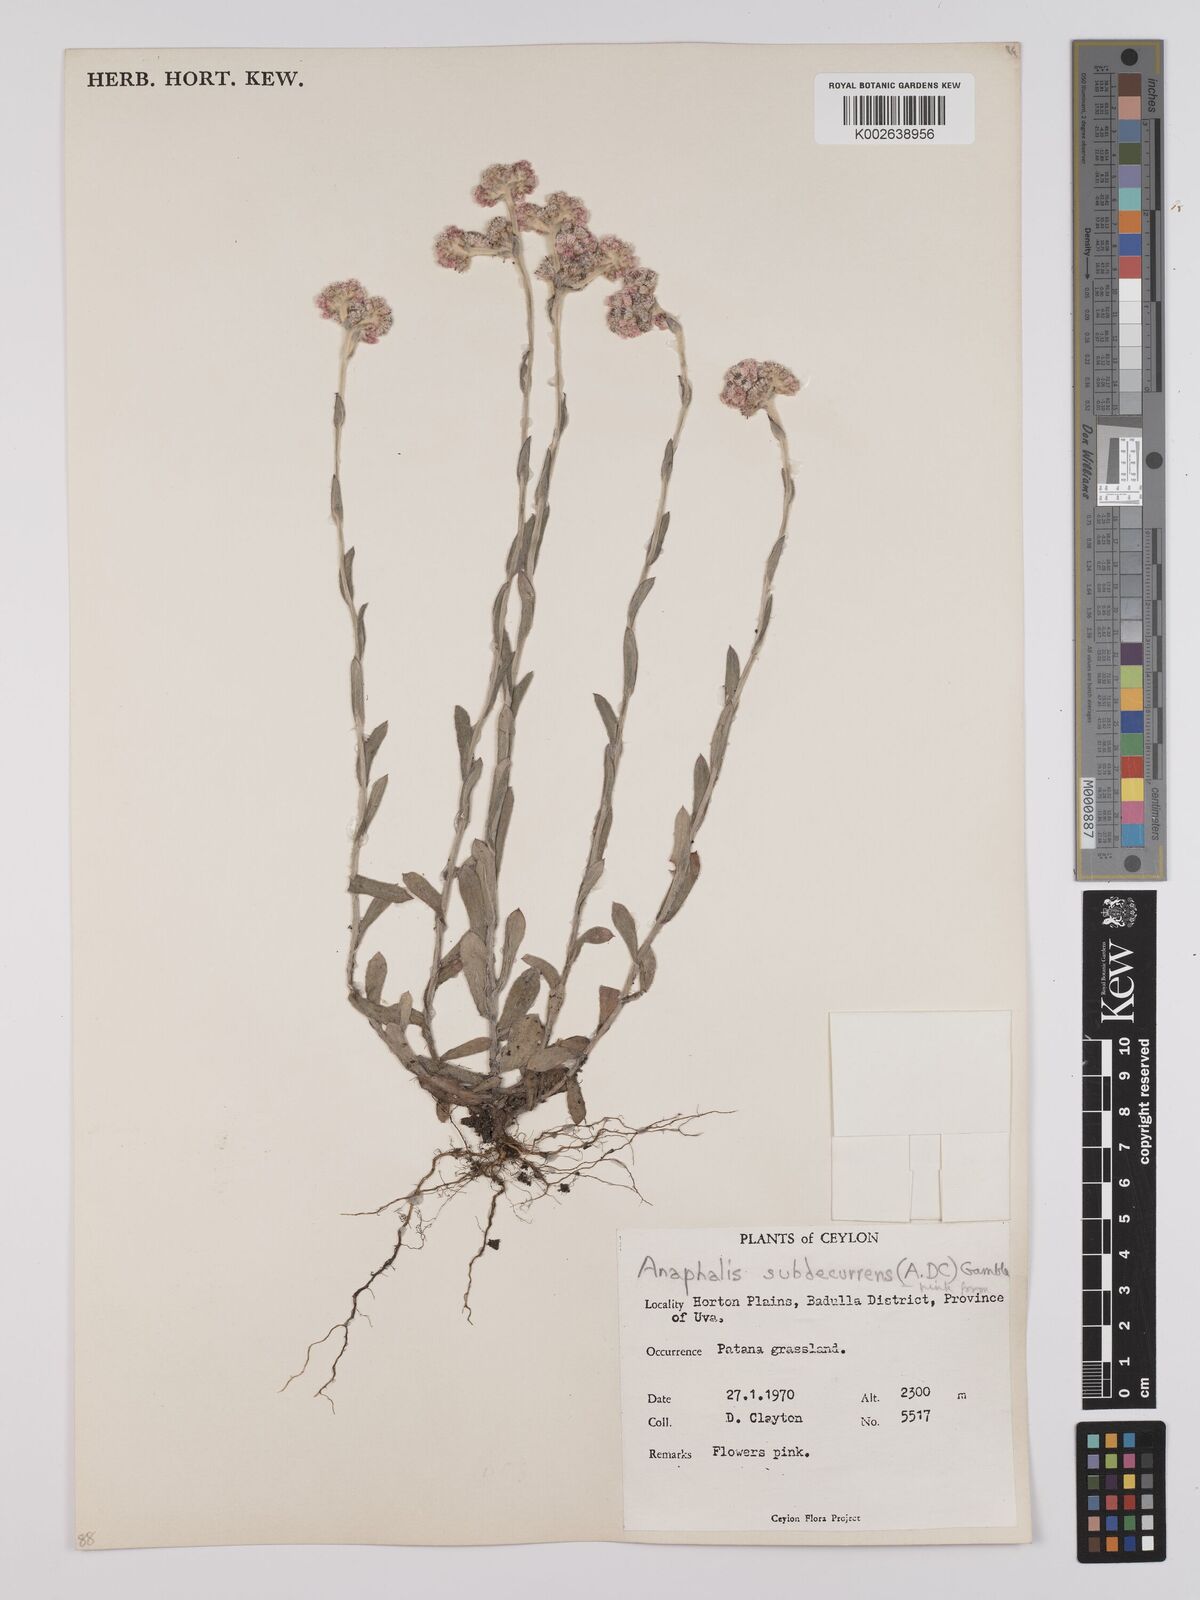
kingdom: Plantae
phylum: Tracheophyta
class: Magnoliopsida
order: Asterales
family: Asteraceae
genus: Anaphalis
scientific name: Anaphalis subdecurrens
